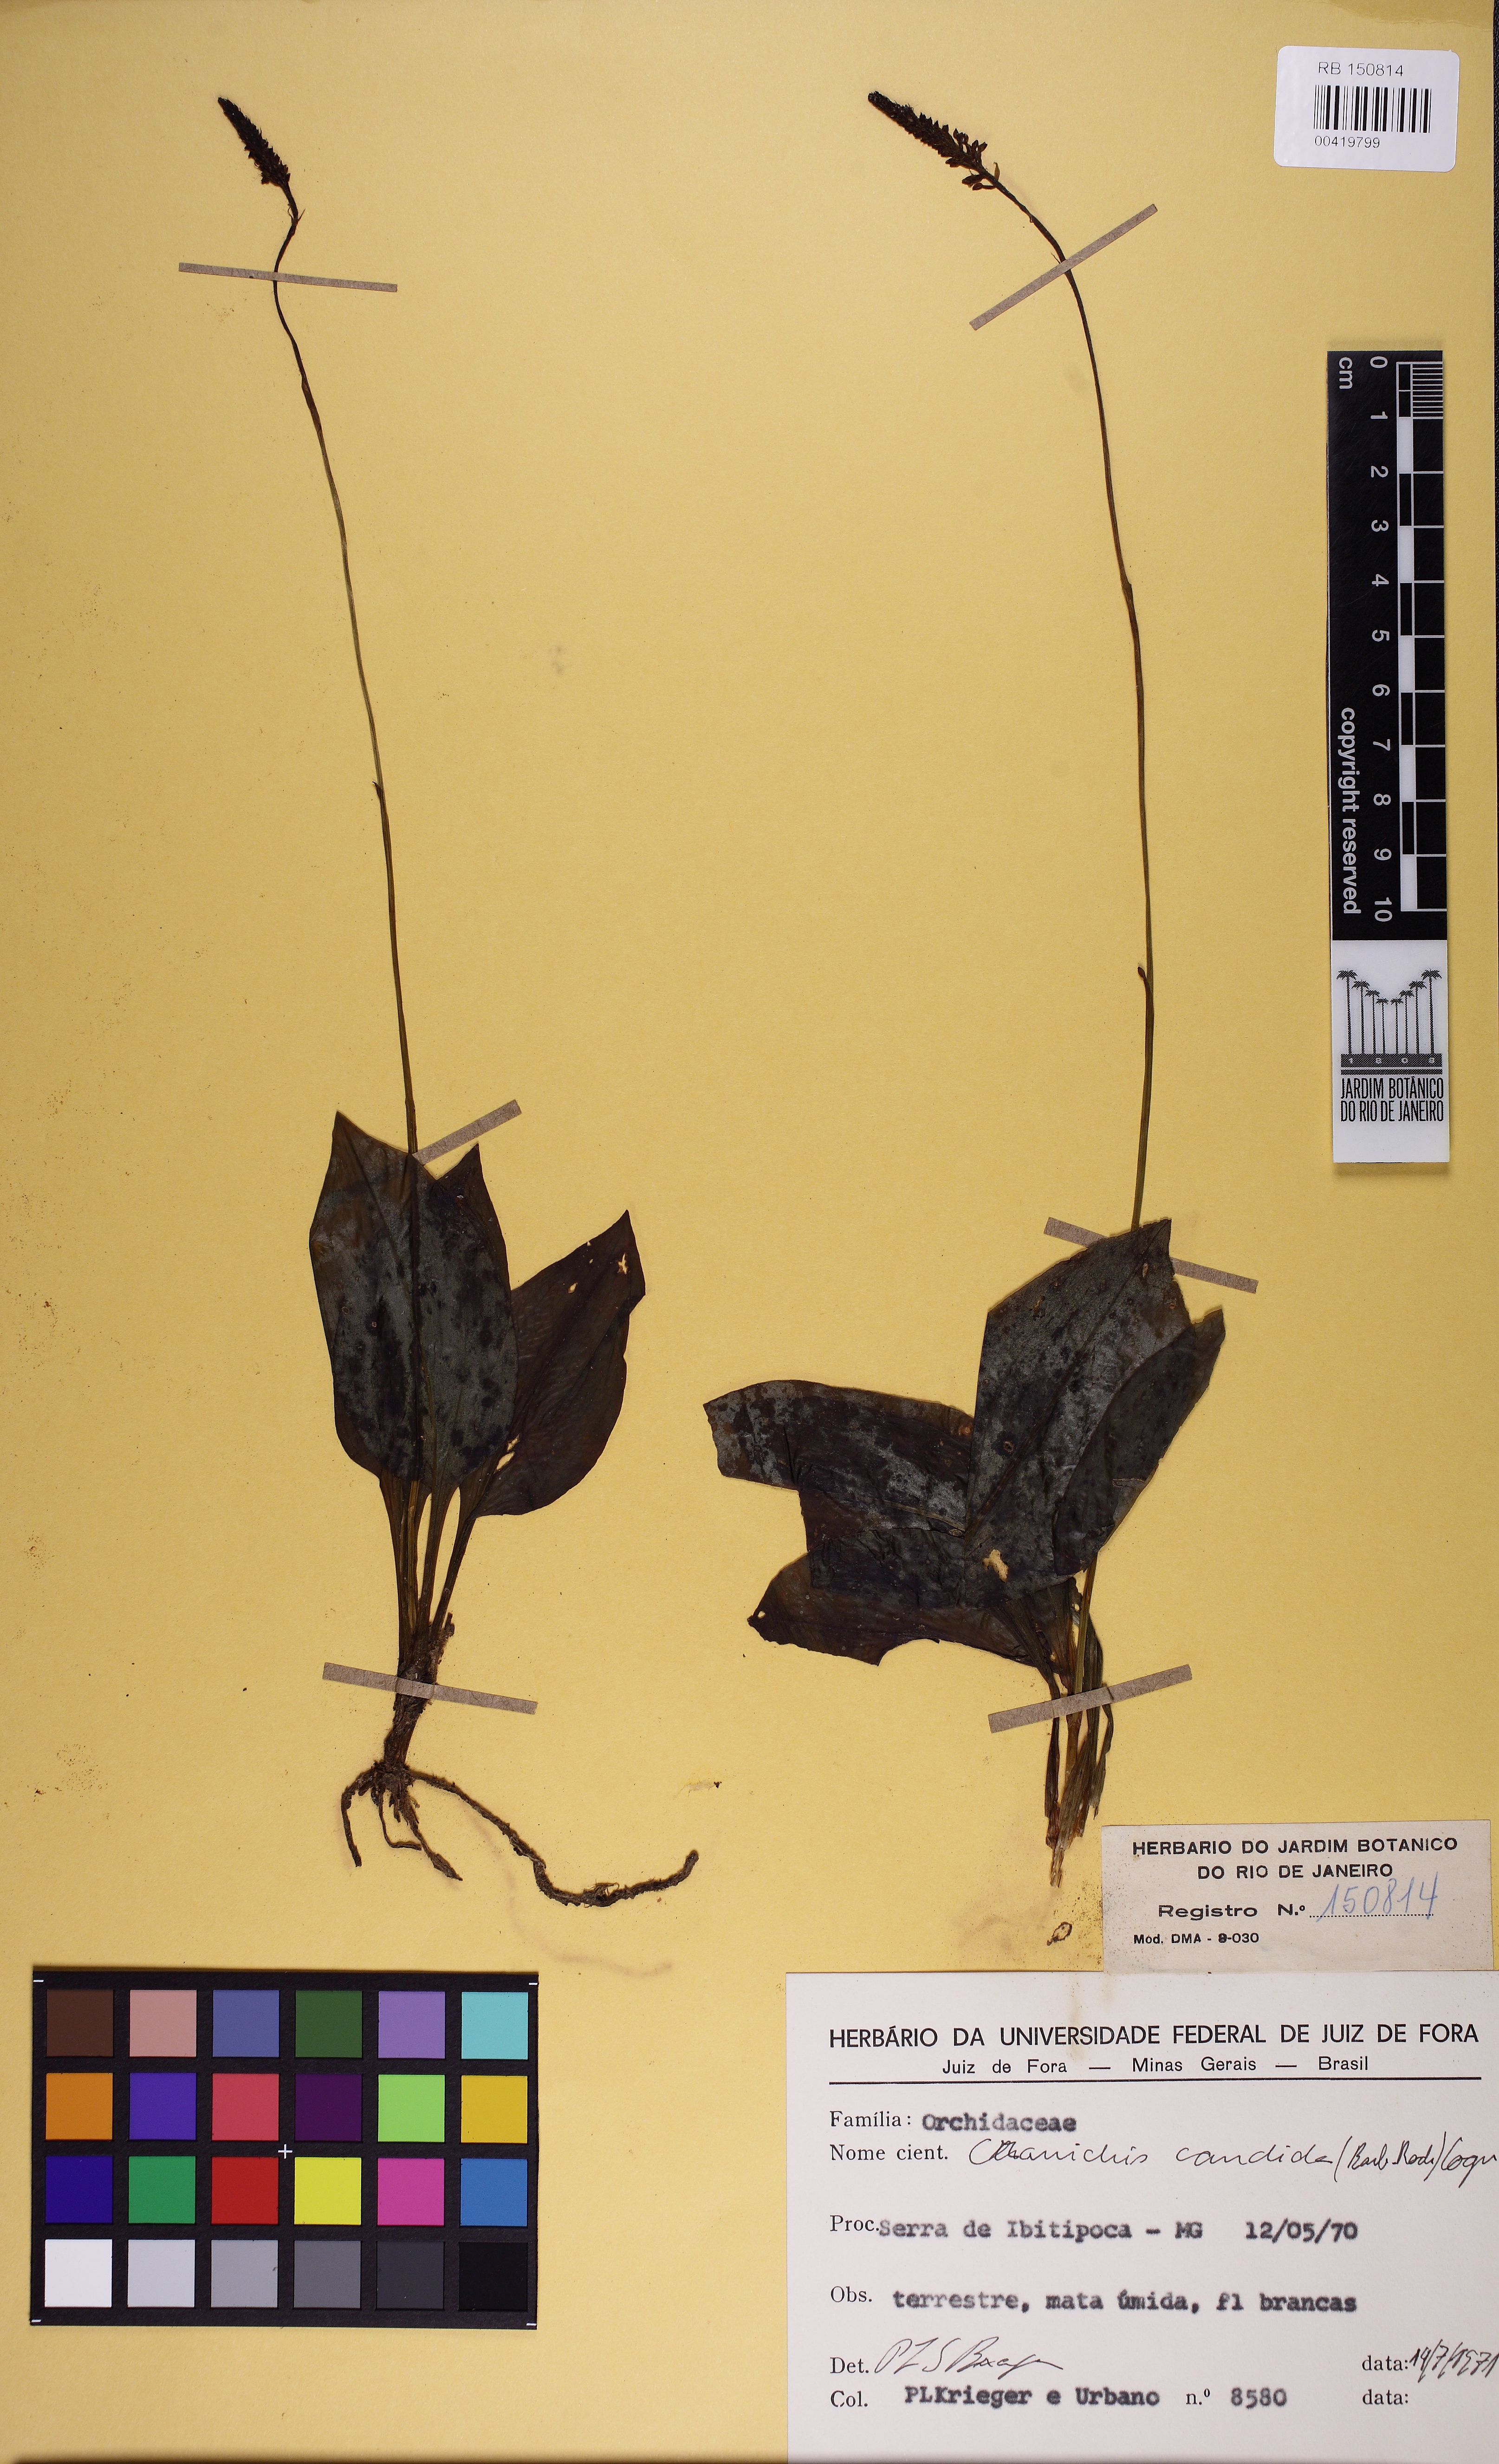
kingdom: Plantae
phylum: Tracheophyta
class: Liliopsida
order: Asparagales
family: Orchidaceae
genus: Cranichis
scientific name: Cranichis candida
